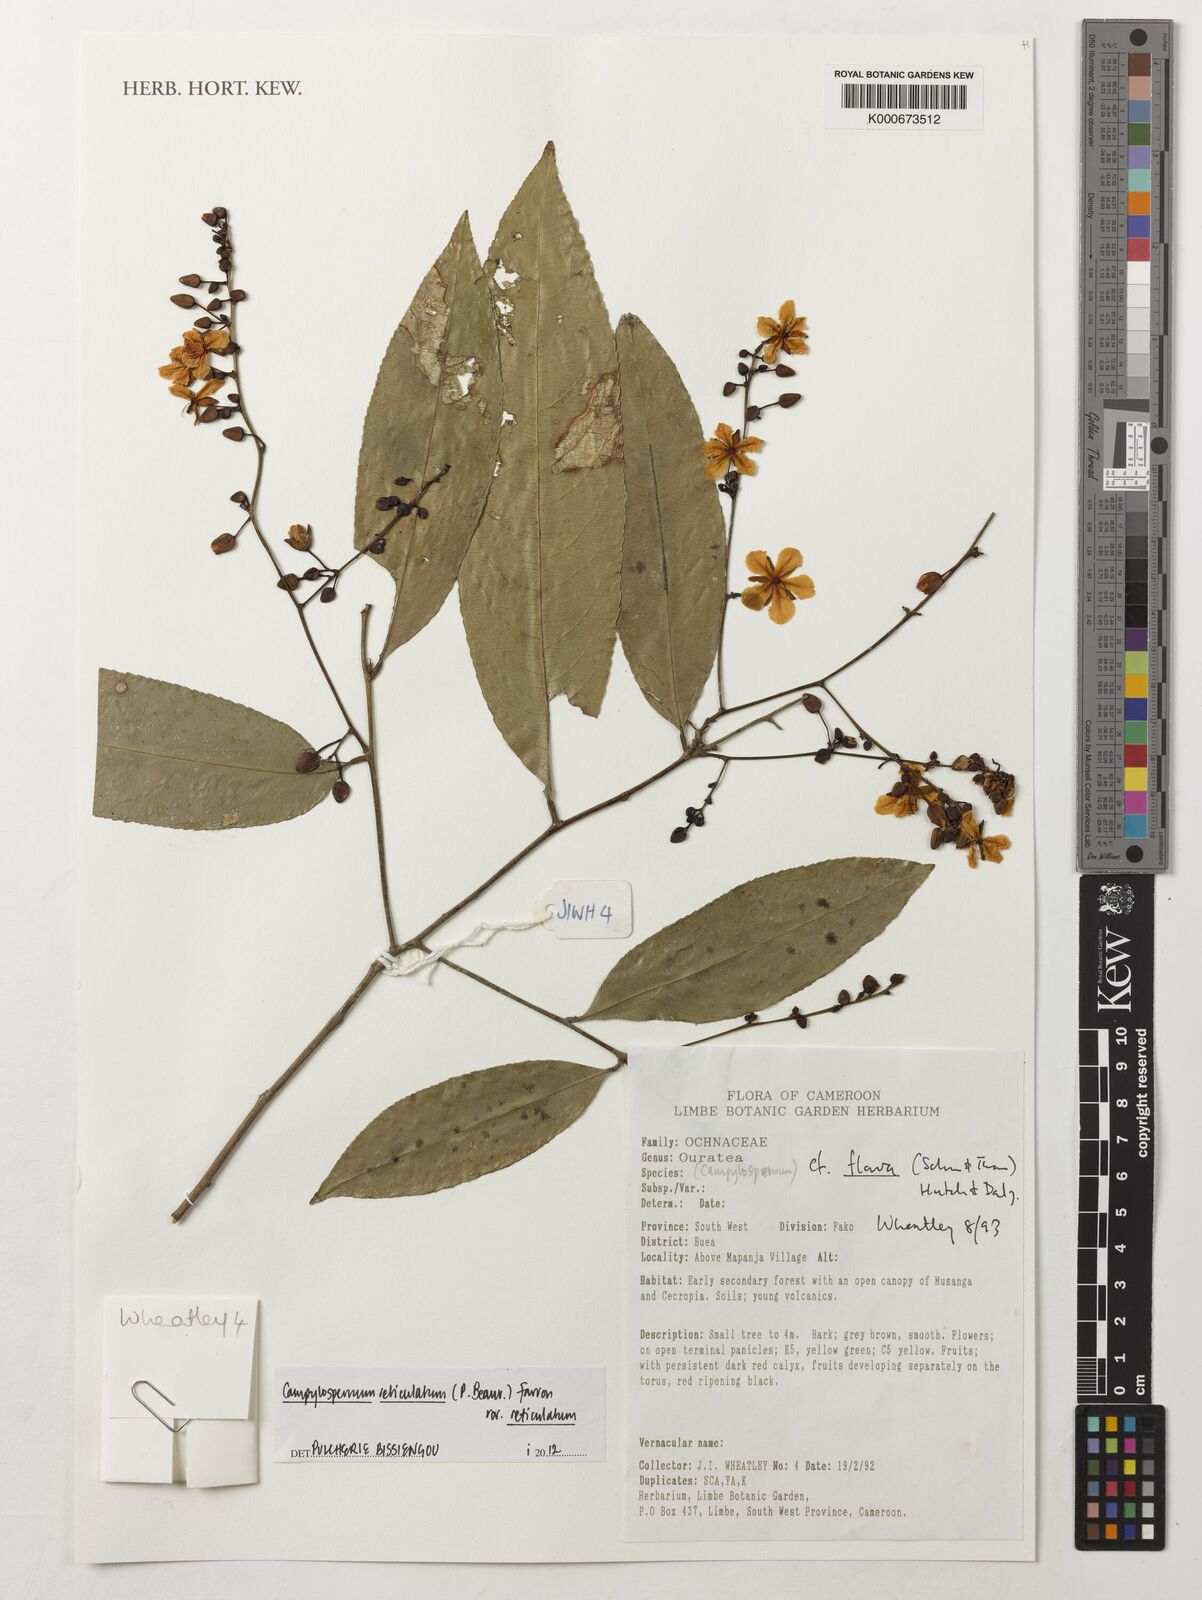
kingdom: Plantae
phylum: Tracheophyta
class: Magnoliopsida
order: Malpighiales
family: Ochnaceae
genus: Campylospermum
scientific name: Campylospermum reticulatum
